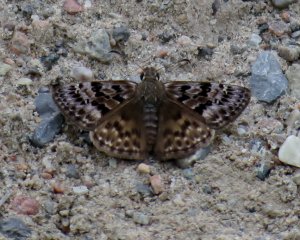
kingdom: Animalia
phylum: Arthropoda
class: Insecta
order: Lepidoptera
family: Hesperiidae
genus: Erynnis
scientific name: Erynnis martialis
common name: Mottled Duskywing
